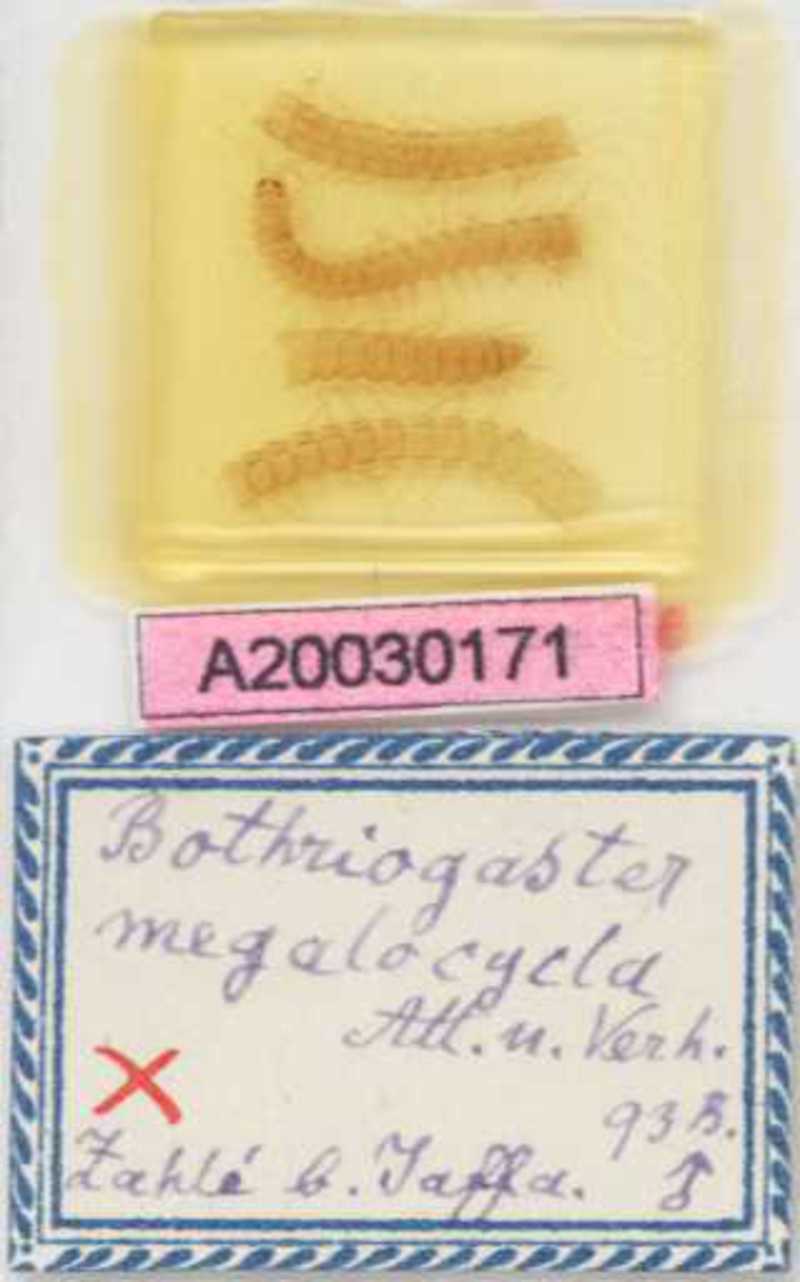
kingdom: Animalia
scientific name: Animalia
